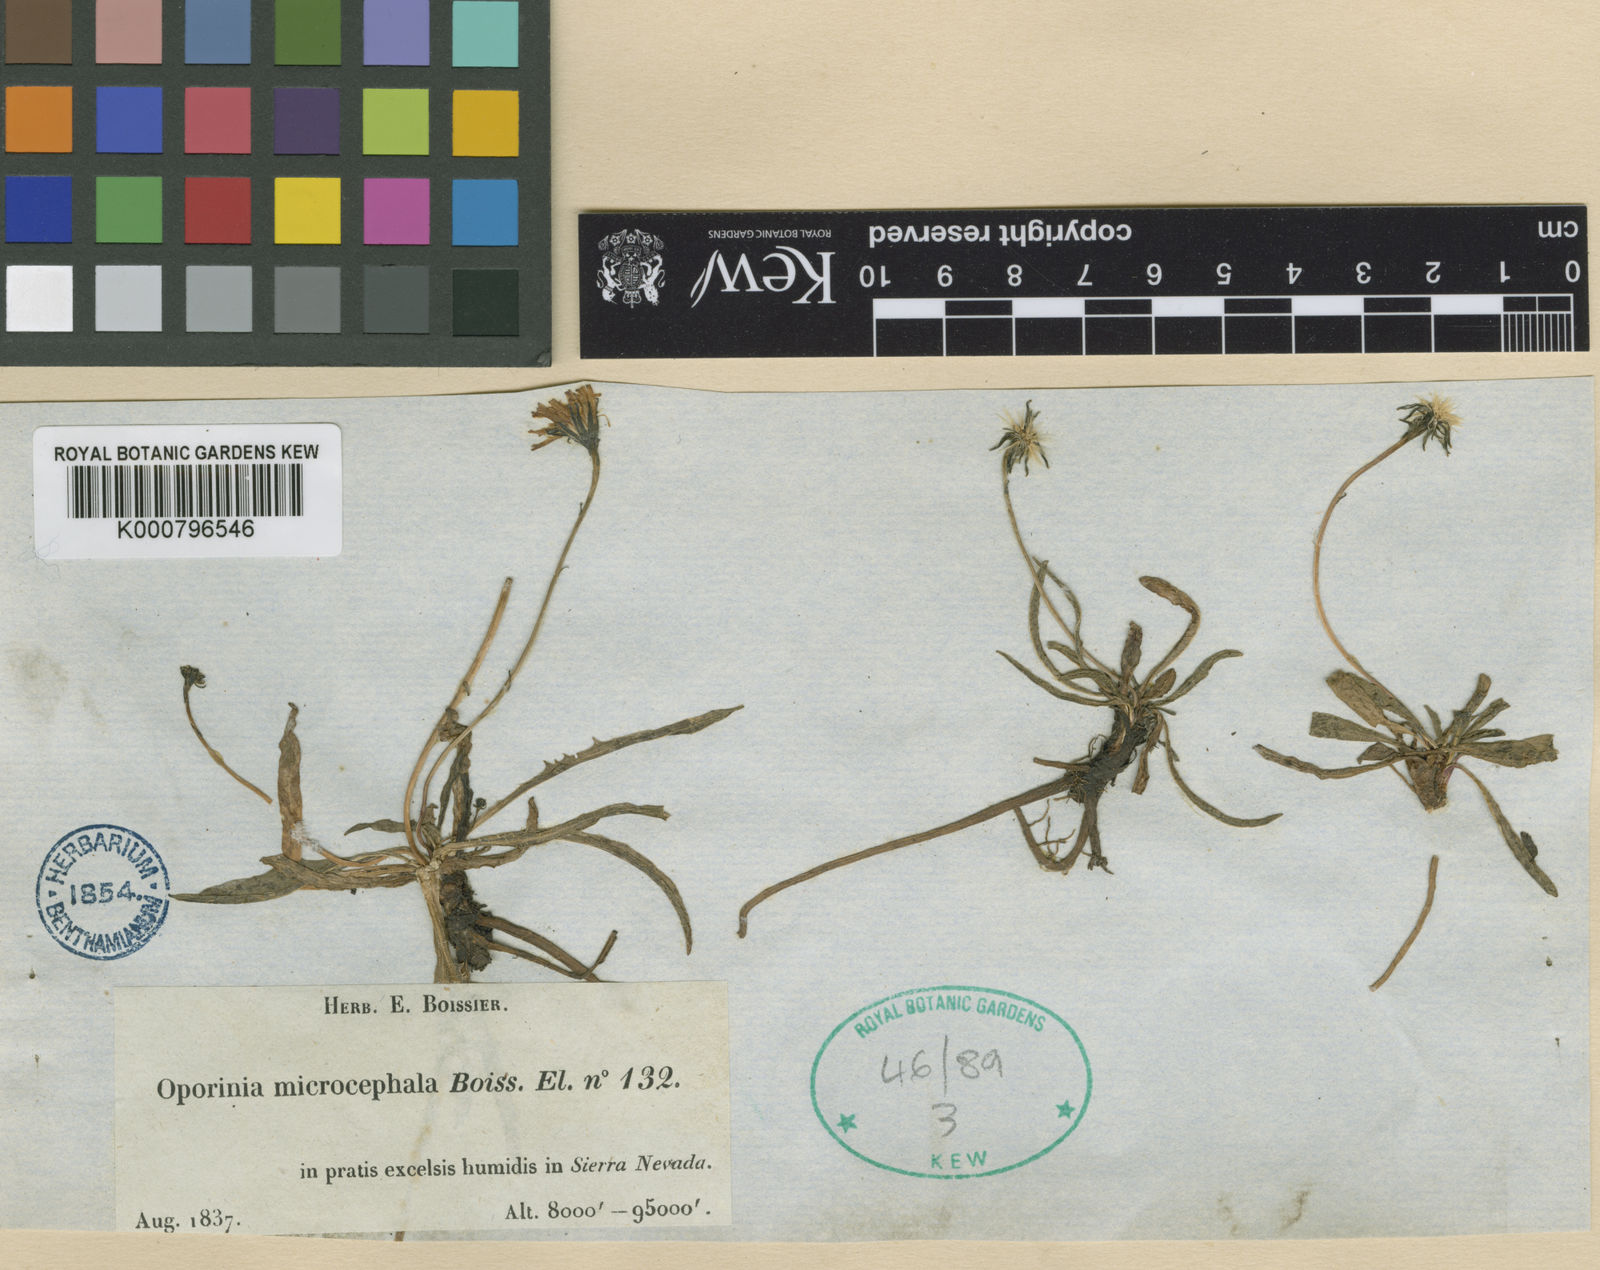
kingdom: Plantae
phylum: Tracheophyta
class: Magnoliopsida
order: Asterales
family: Asteraceae
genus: Leontodon
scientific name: Leontodon hispidus
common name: Rough hawkbit
